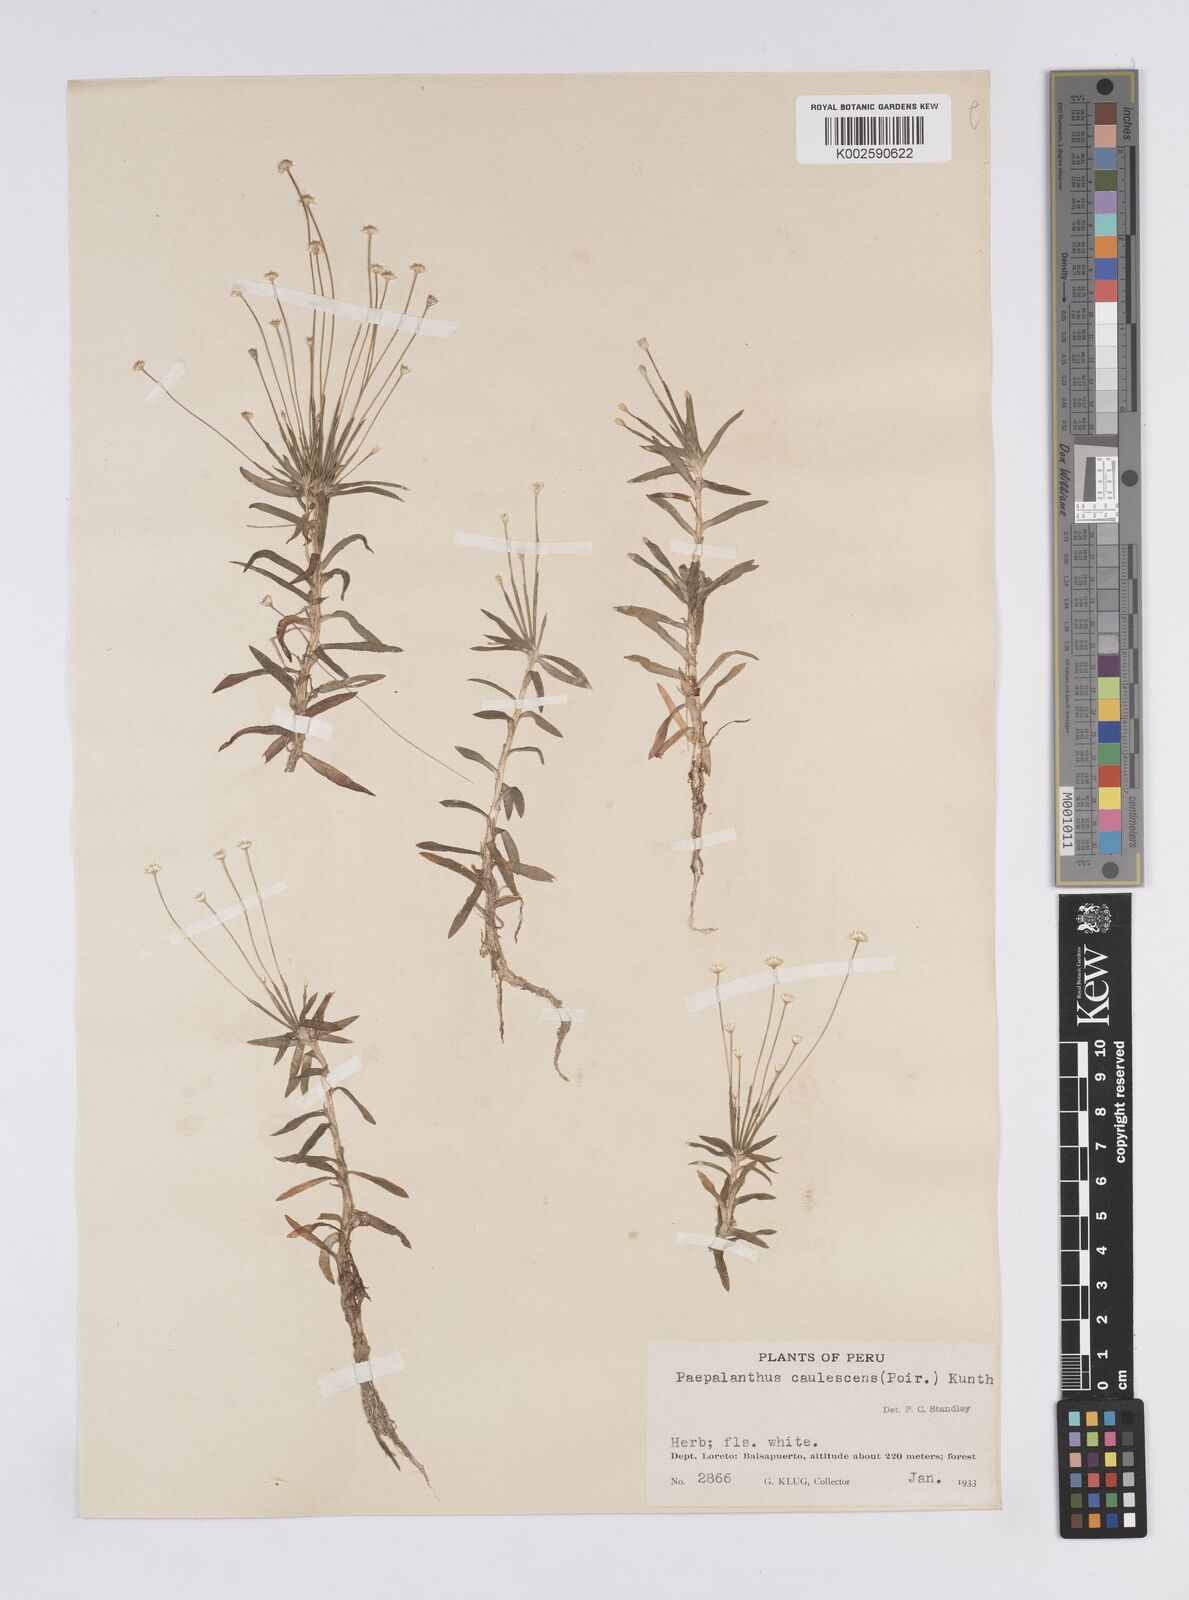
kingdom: Plantae
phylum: Tracheophyta
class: Liliopsida
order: Poales
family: Eriocaulaceae
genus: Syngonanthus
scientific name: Syngonanthus caulescens
